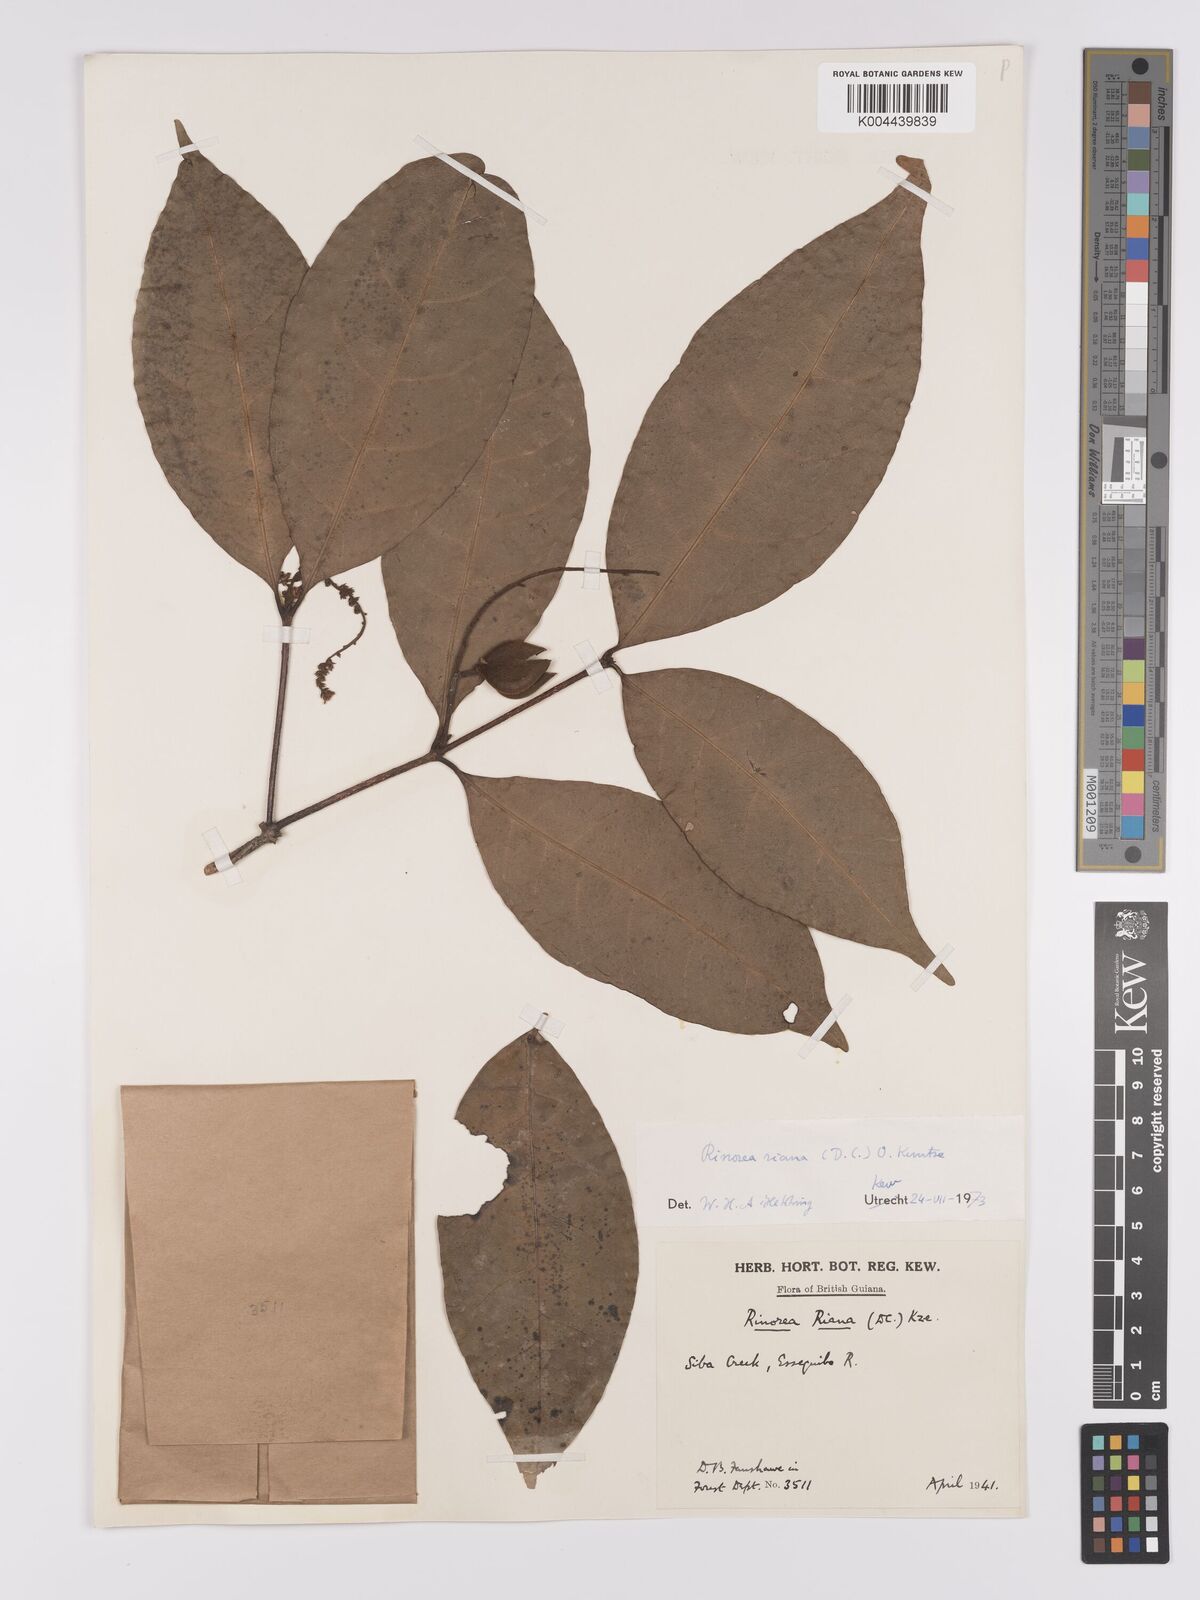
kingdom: Plantae
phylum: Tracheophyta
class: Magnoliopsida
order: Malpighiales
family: Violaceae
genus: Rinorea
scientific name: Rinorea riana
